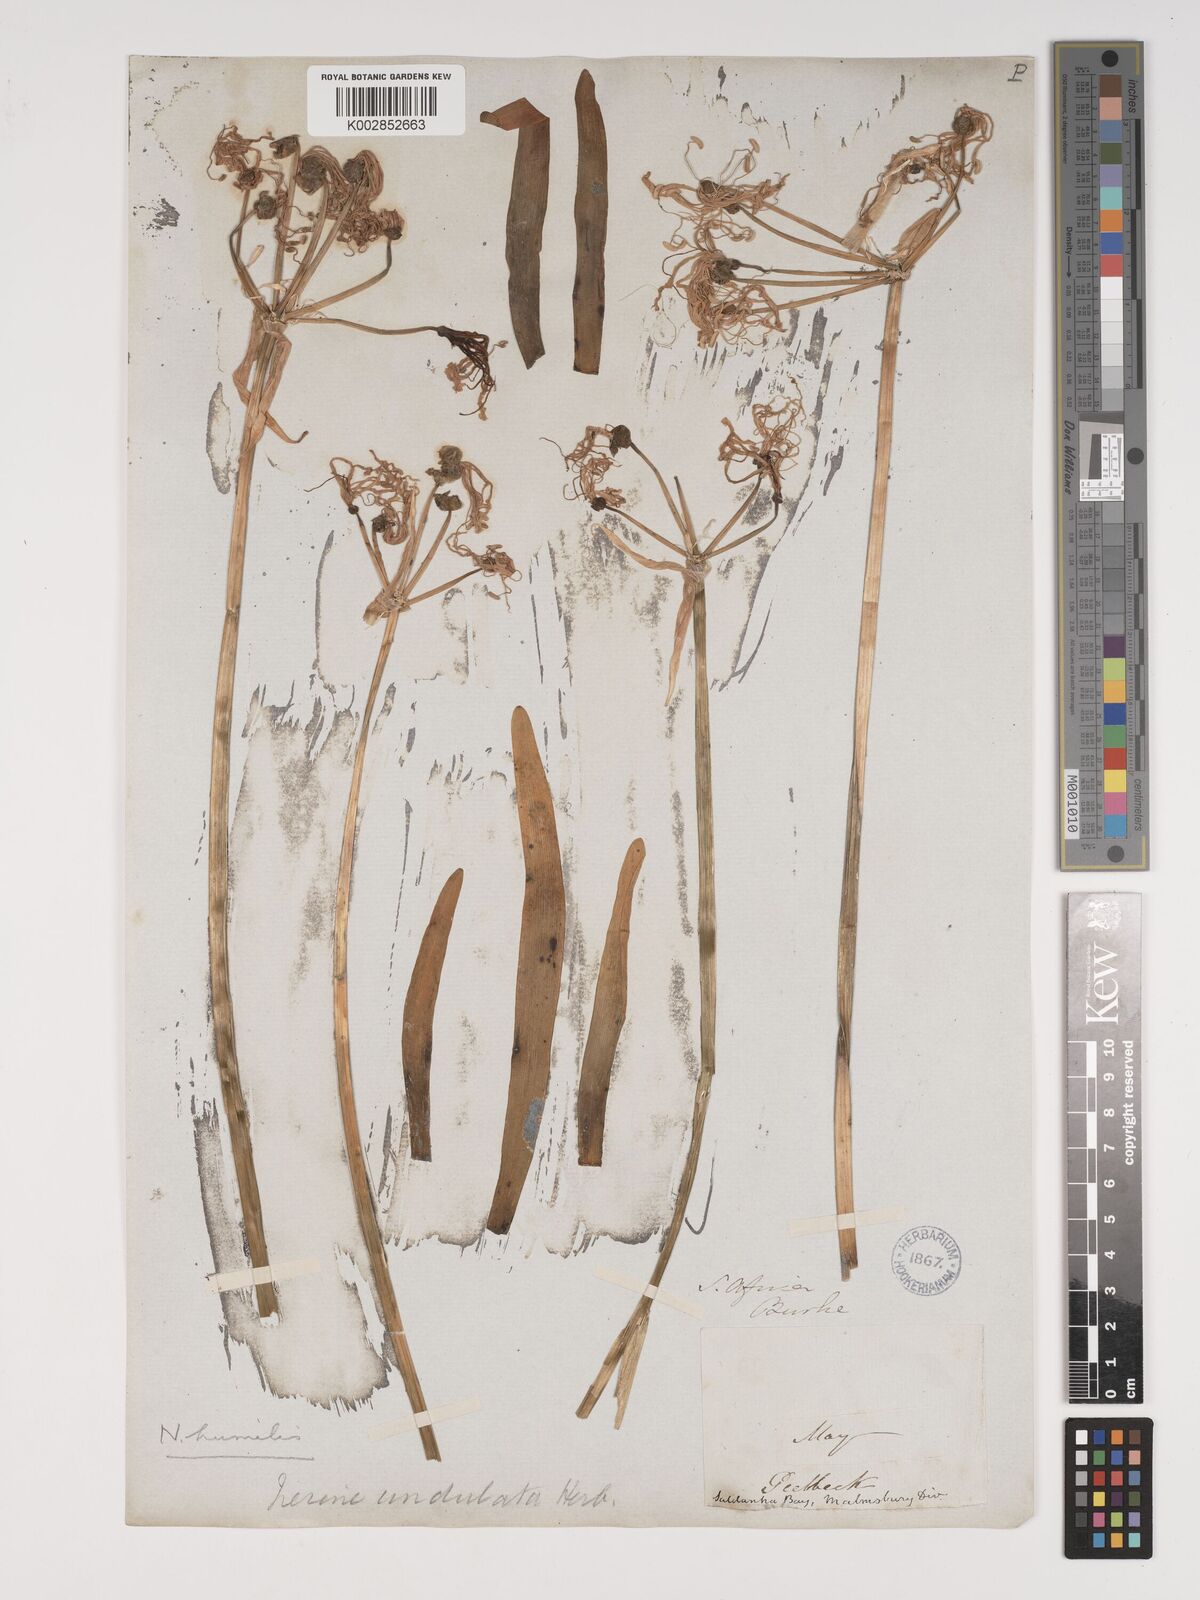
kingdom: Plantae
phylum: Tracheophyta
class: Liliopsida
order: Asparagales
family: Amaryllidaceae
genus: Nerine
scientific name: Nerine humilis
